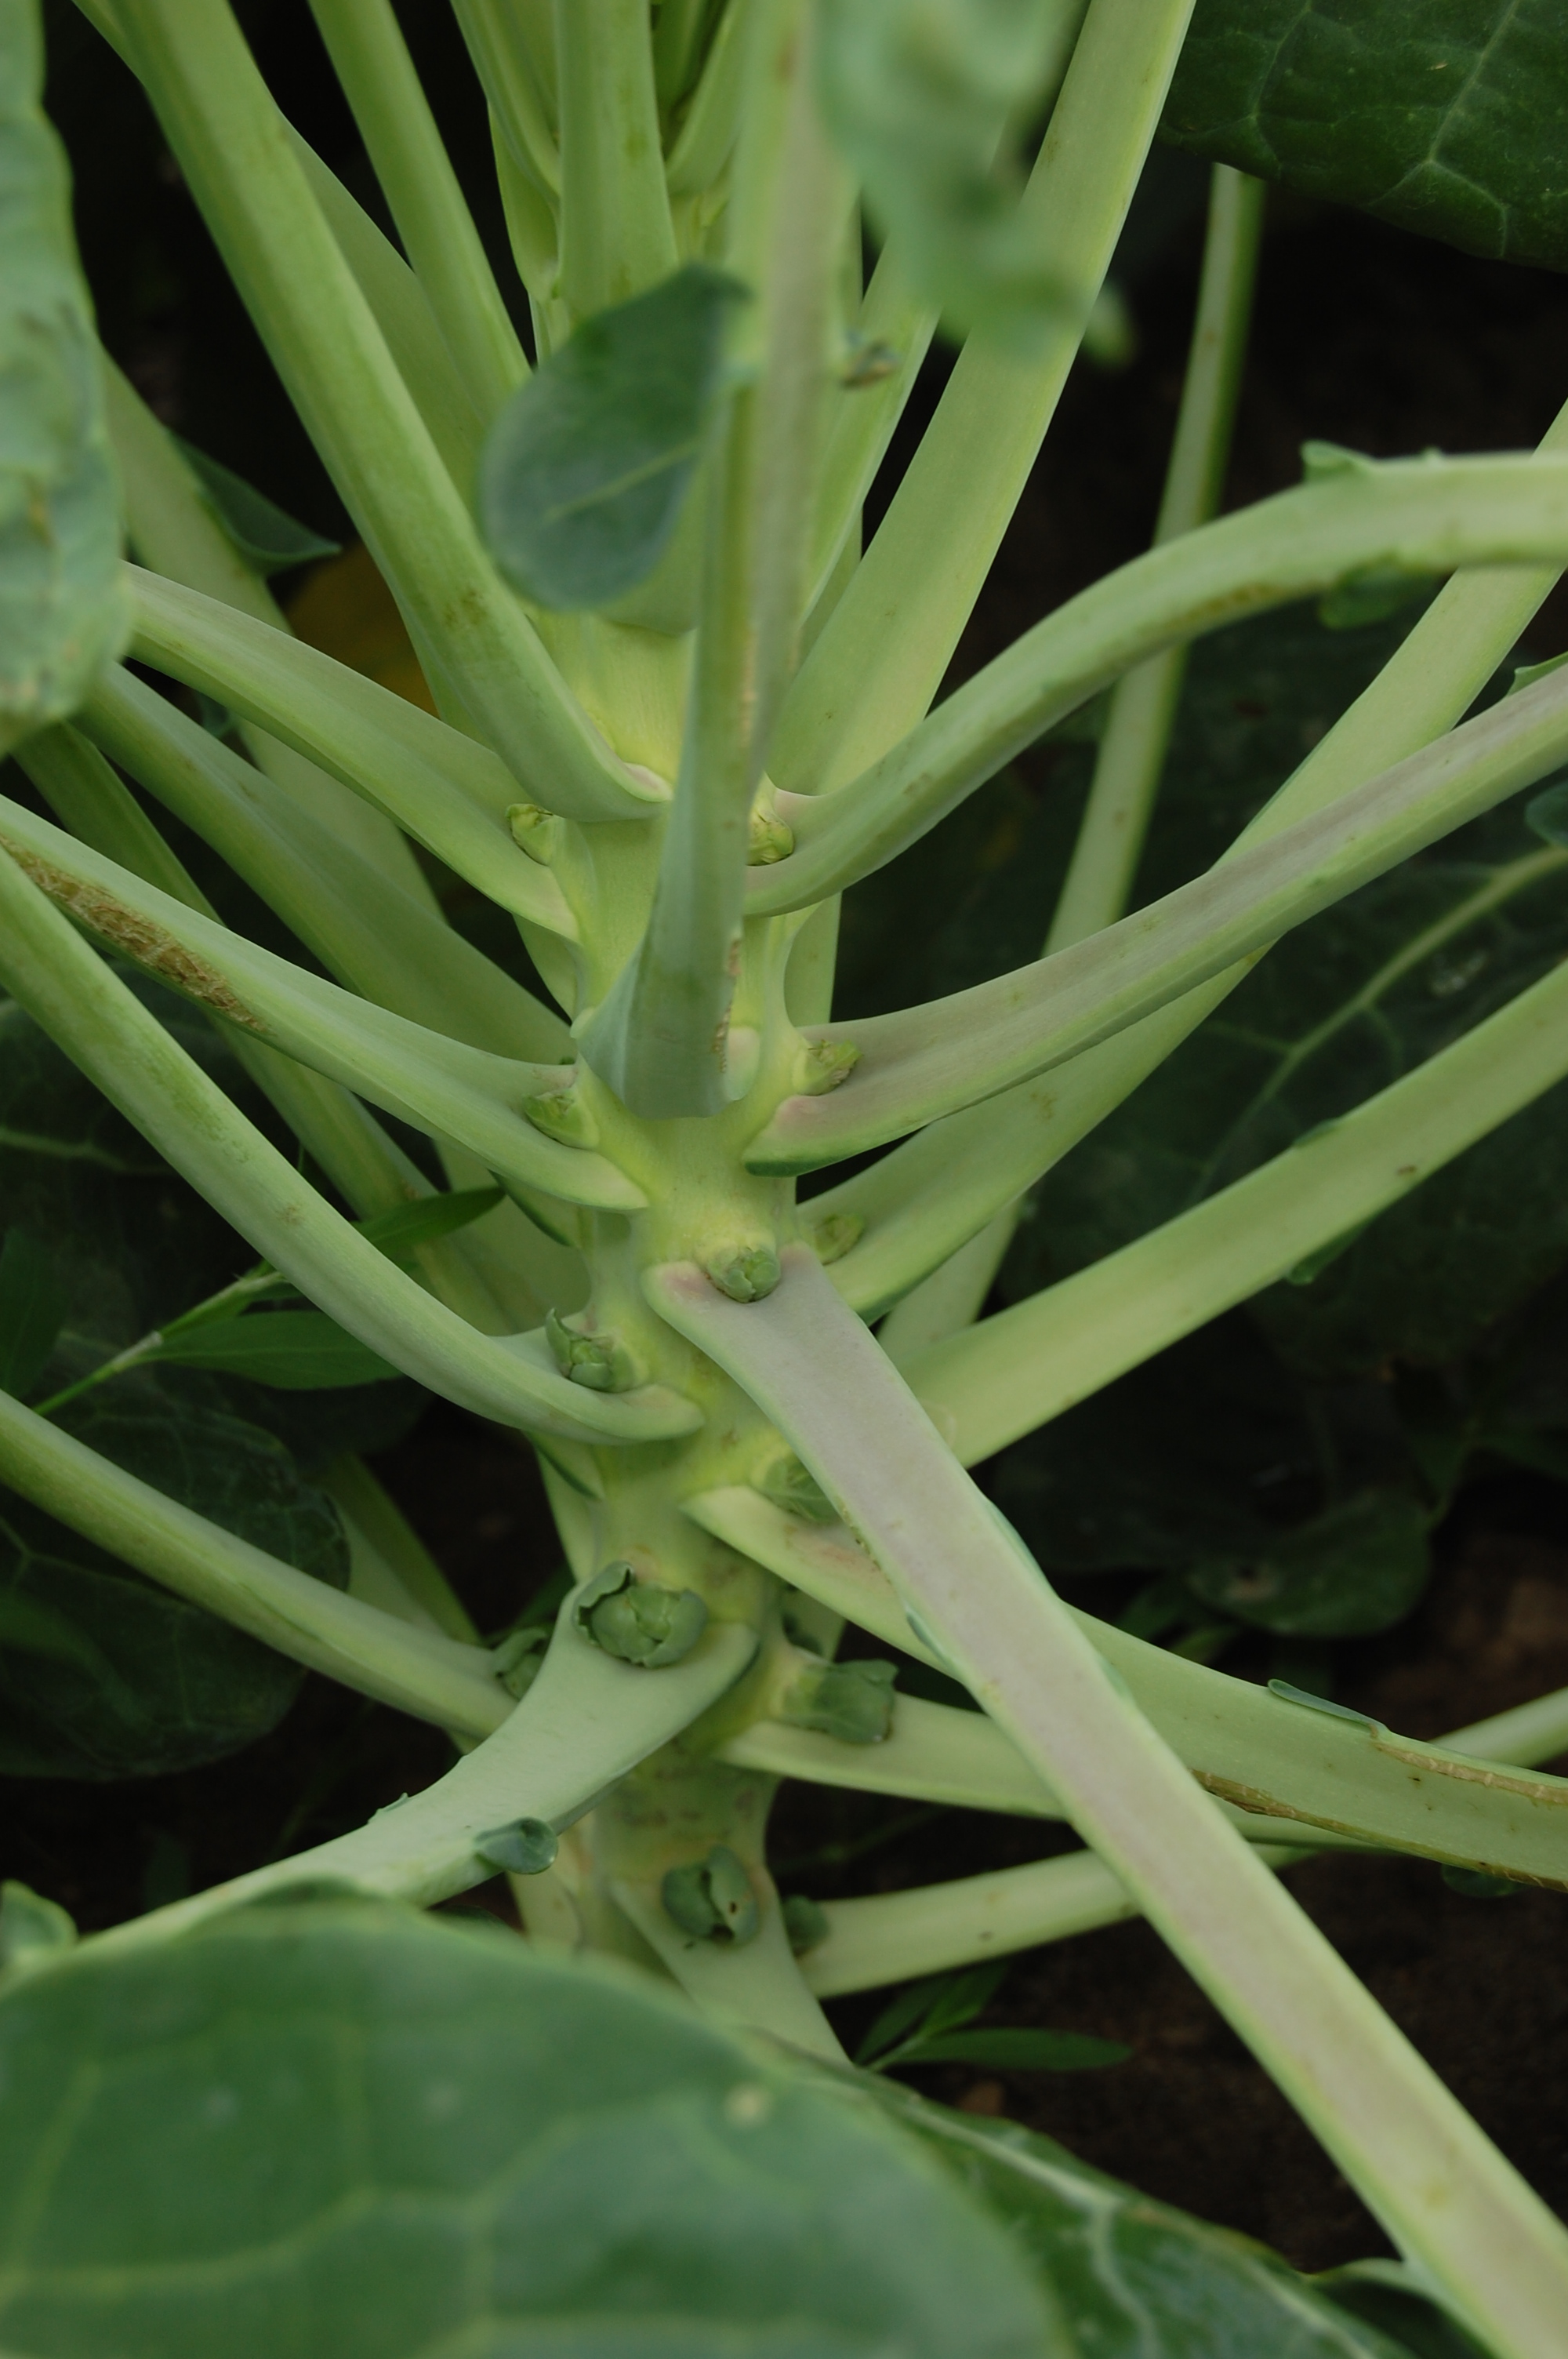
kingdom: Plantae
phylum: Tracheophyta
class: Magnoliopsida
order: Brassicales
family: Brassicaceae
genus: Brassica
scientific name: Brassica oleracea
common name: Cabbage
